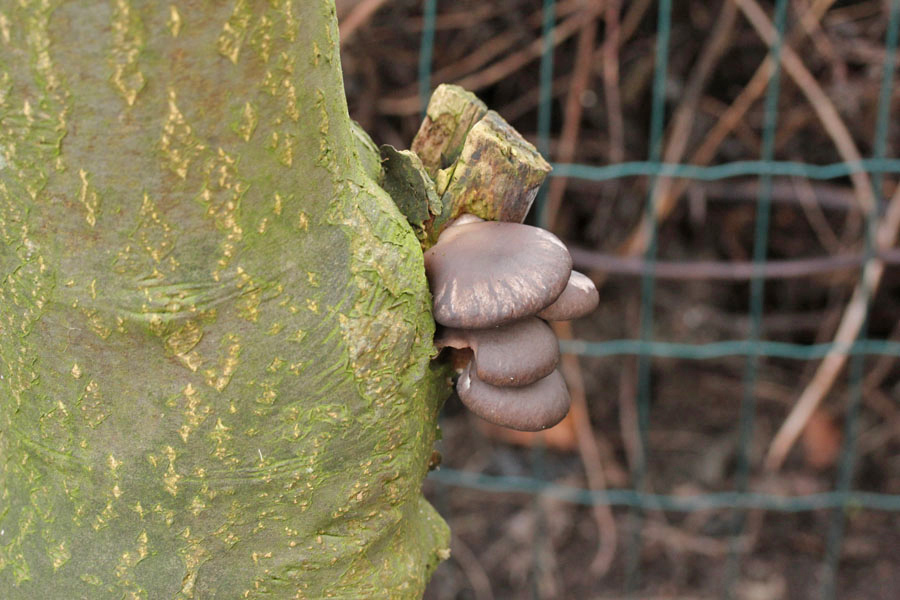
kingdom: Fungi
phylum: Basidiomycota
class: Agaricomycetes
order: Agaricales
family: Pleurotaceae
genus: Pleurotus
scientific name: Pleurotus ostreatus
